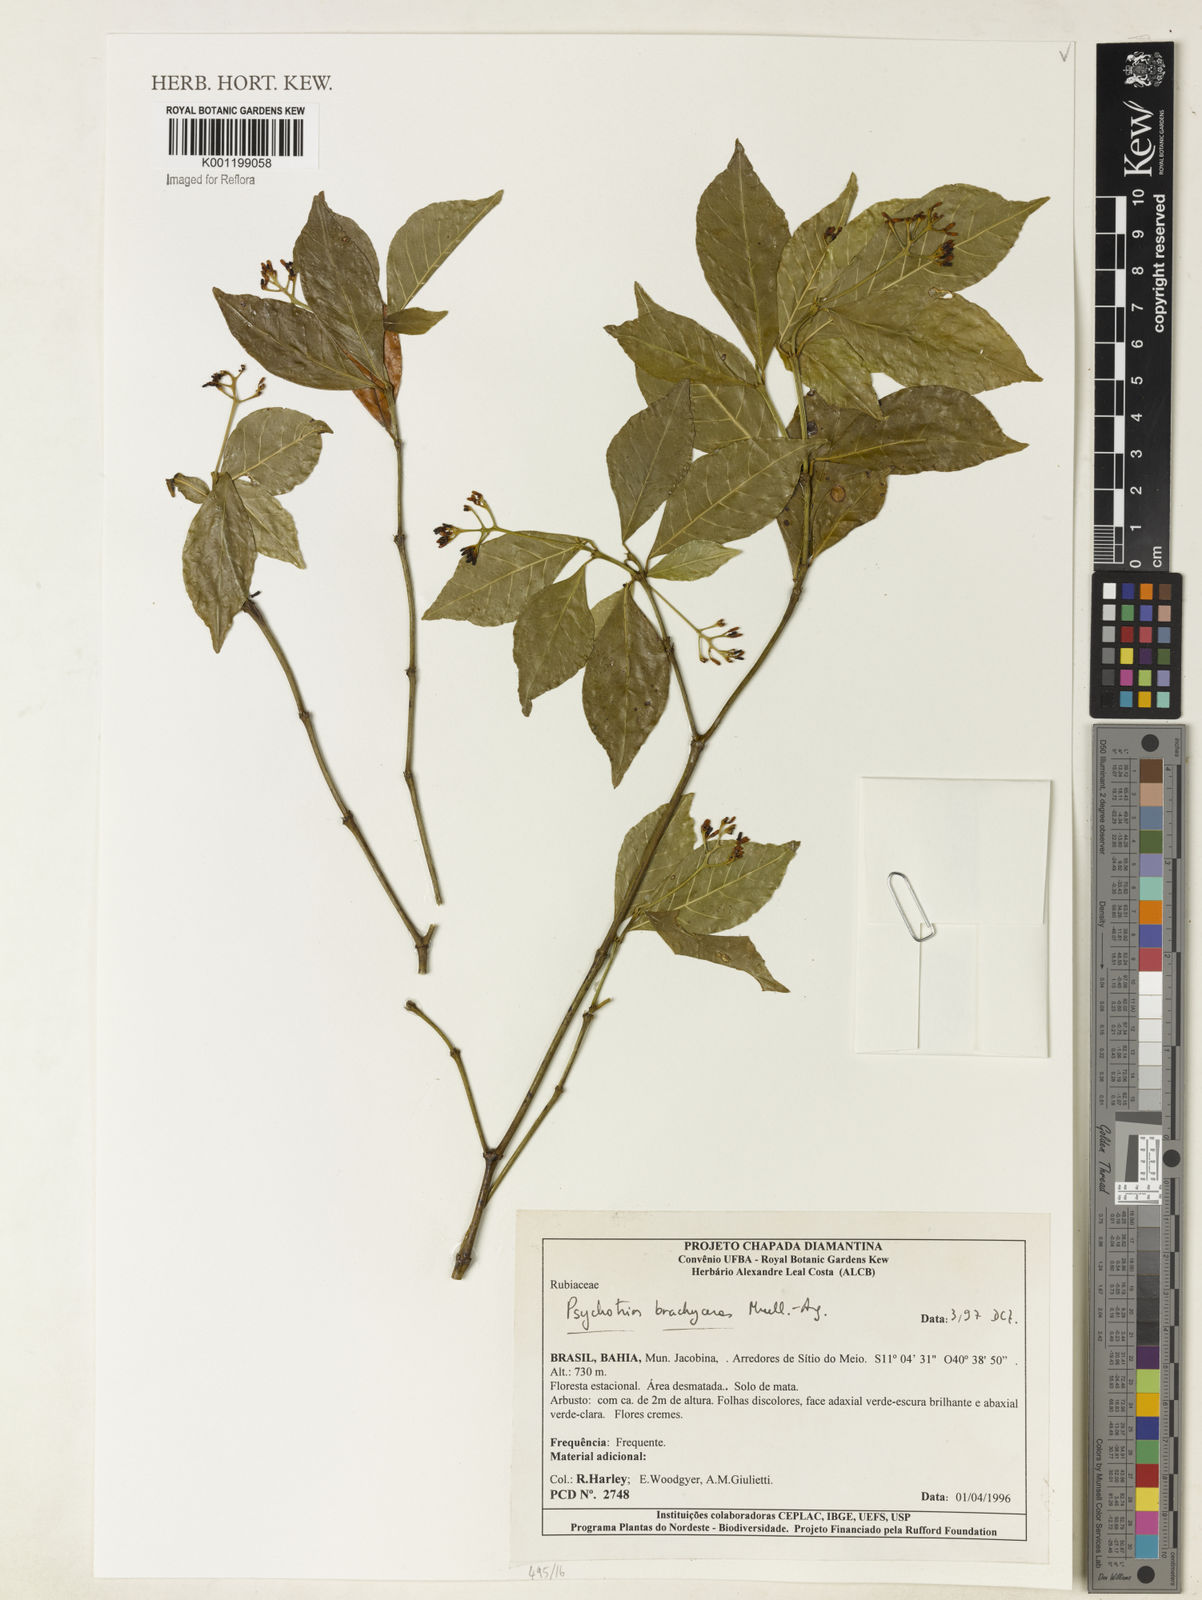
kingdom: Plantae
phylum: Tracheophyta
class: Magnoliopsida
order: Gentianales
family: Rubiaceae
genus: Psychotria
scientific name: Psychotria
